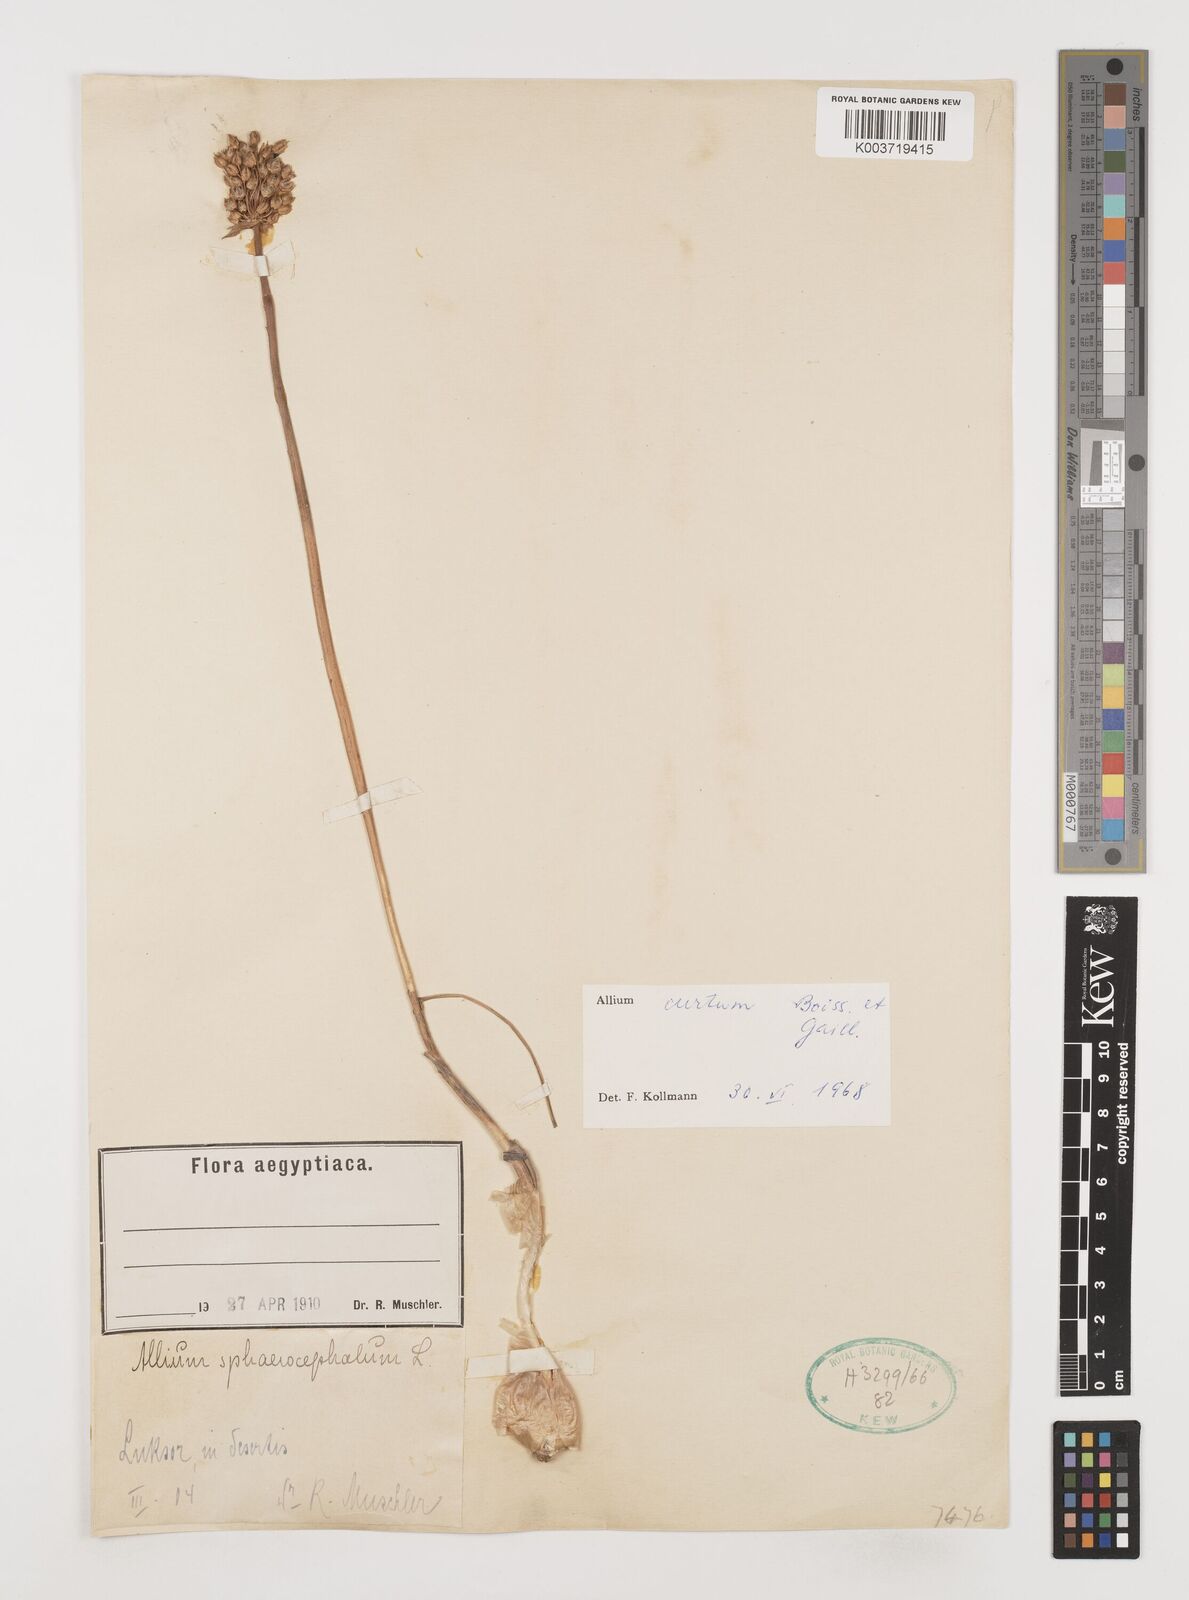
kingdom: Plantae
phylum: Tracheophyta
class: Liliopsida
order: Asparagales
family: Amaryllidaceae
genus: Allium
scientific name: Allium curtum
